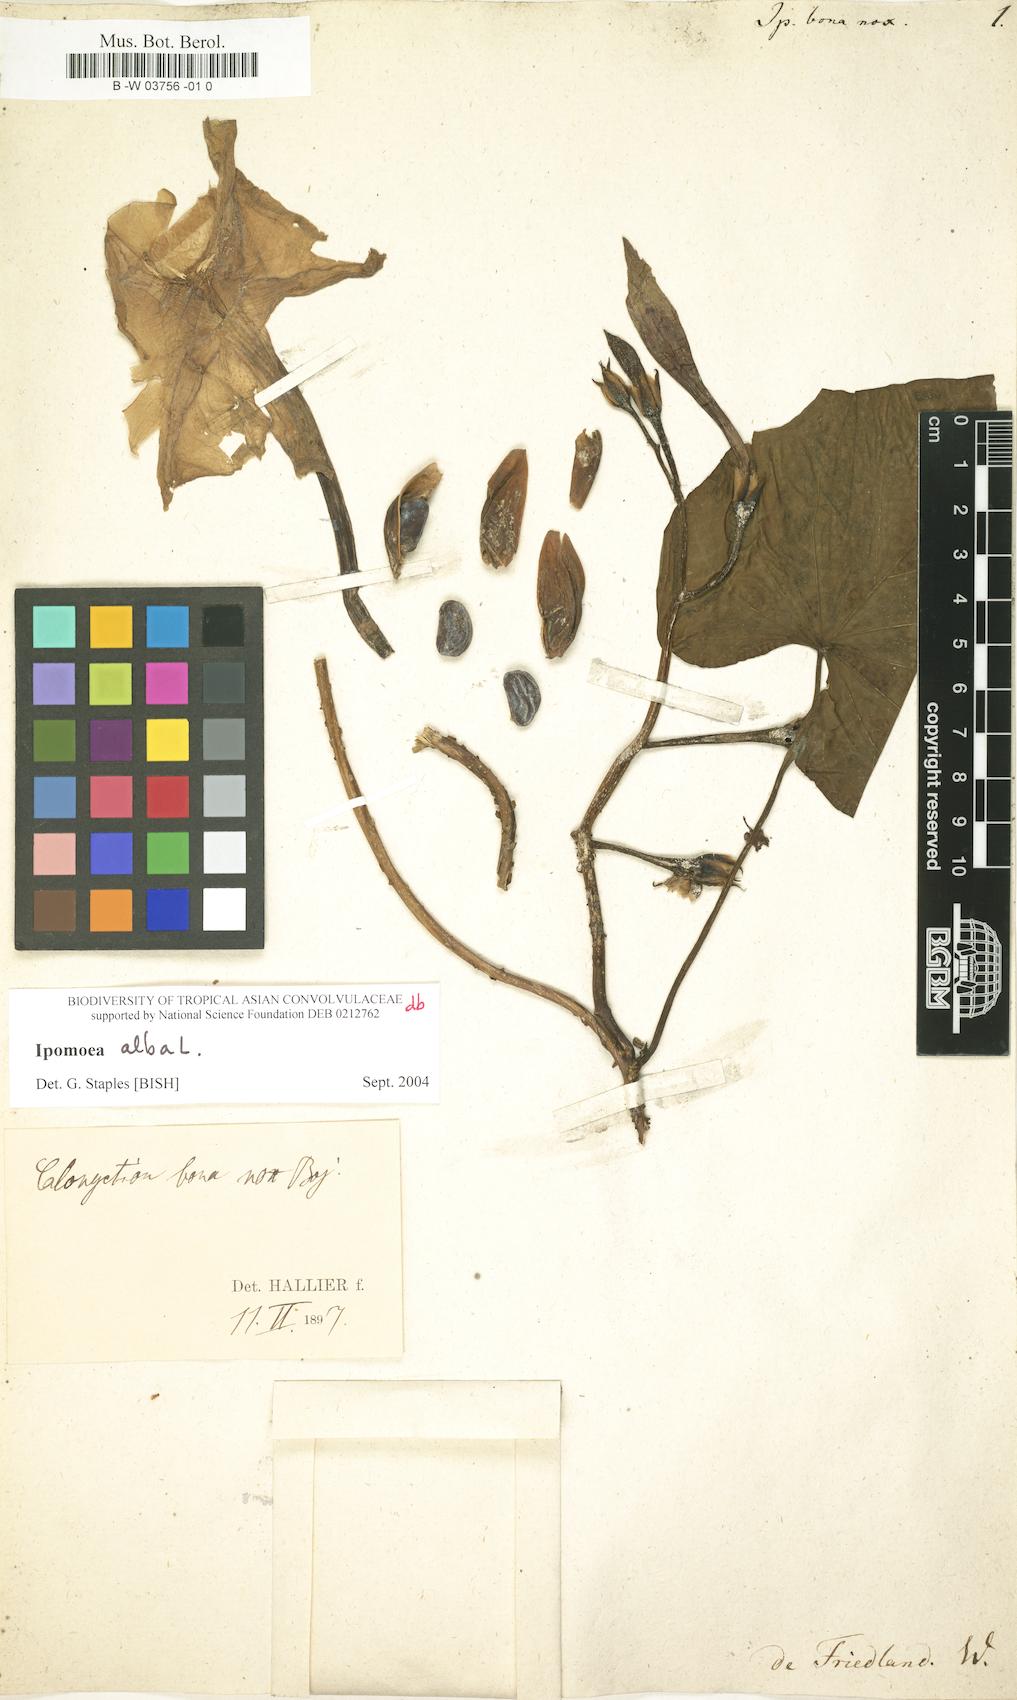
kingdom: Plantae
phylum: Tracheophyta
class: Magnoliopsida
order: Solanales
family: Convolvulaceae
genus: Ipomoea
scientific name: Ipomoea alba
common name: Moonflower
